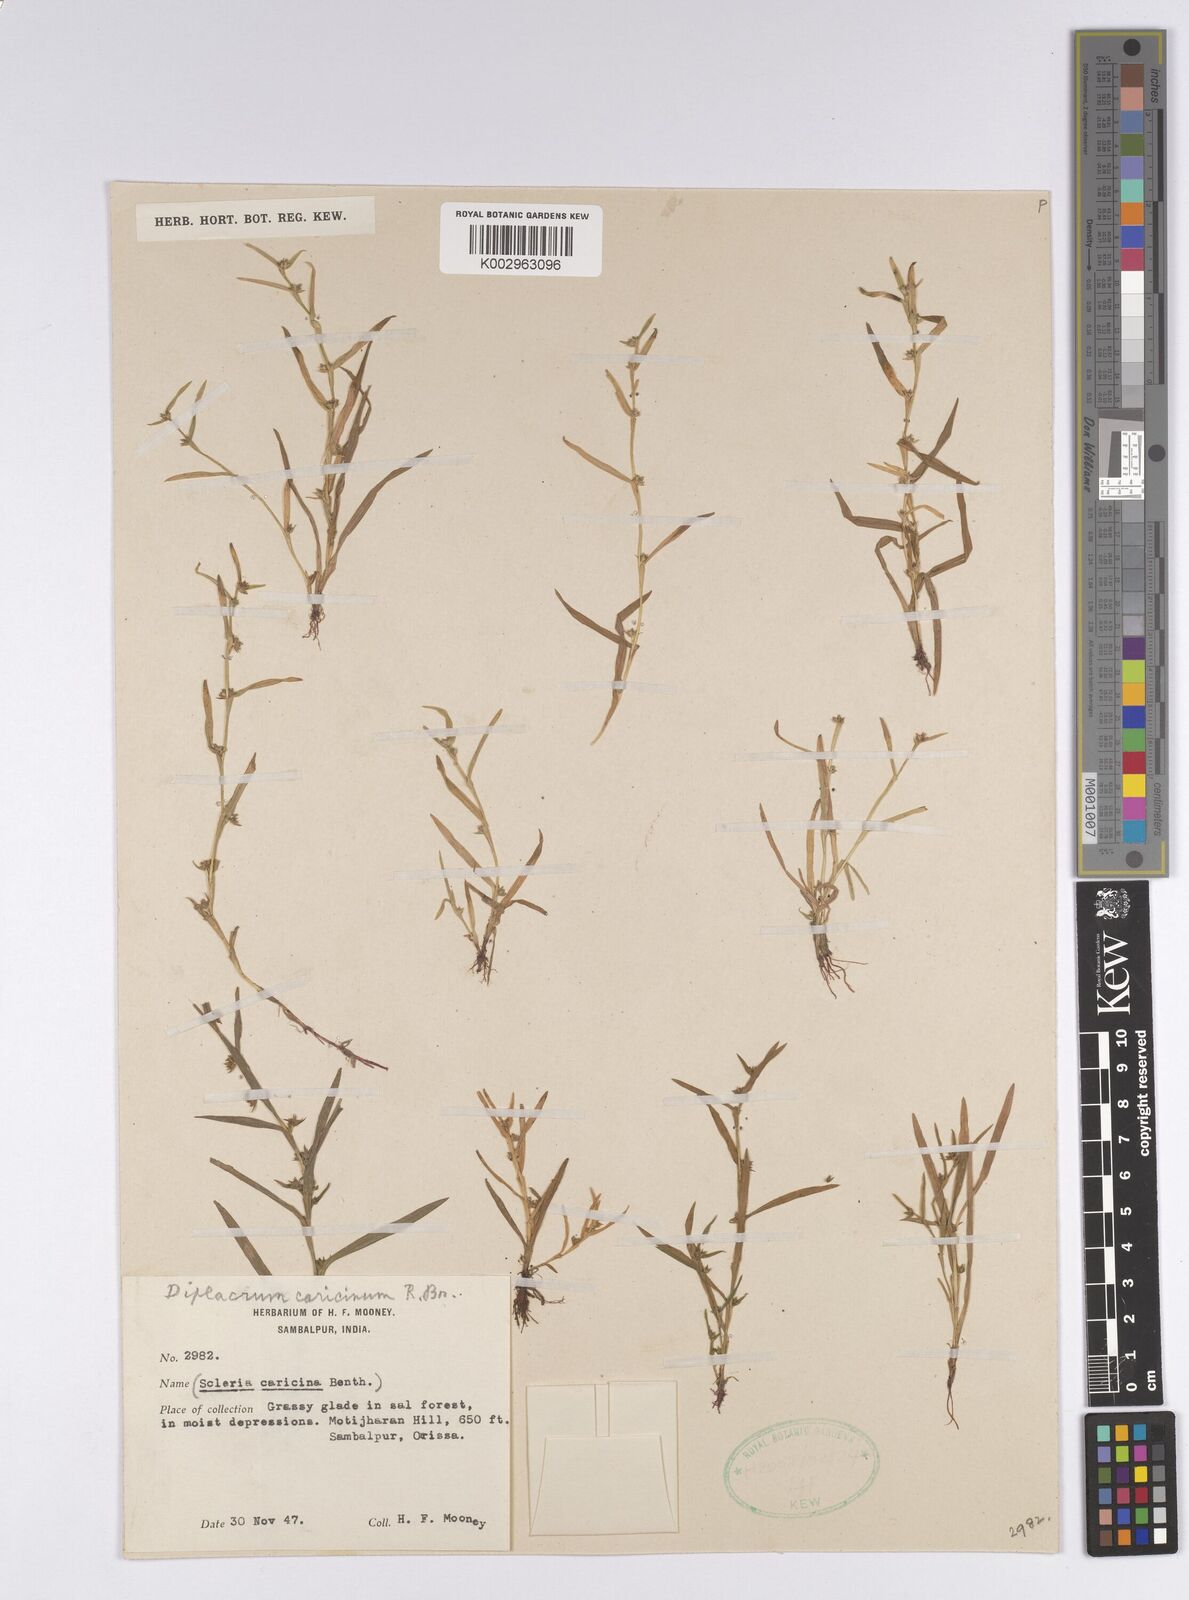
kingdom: Plantae
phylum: Tracheophyta
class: Liliopsida
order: Poales
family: Cyperaceae
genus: Diplacrum
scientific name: Diplacrum caricinum
